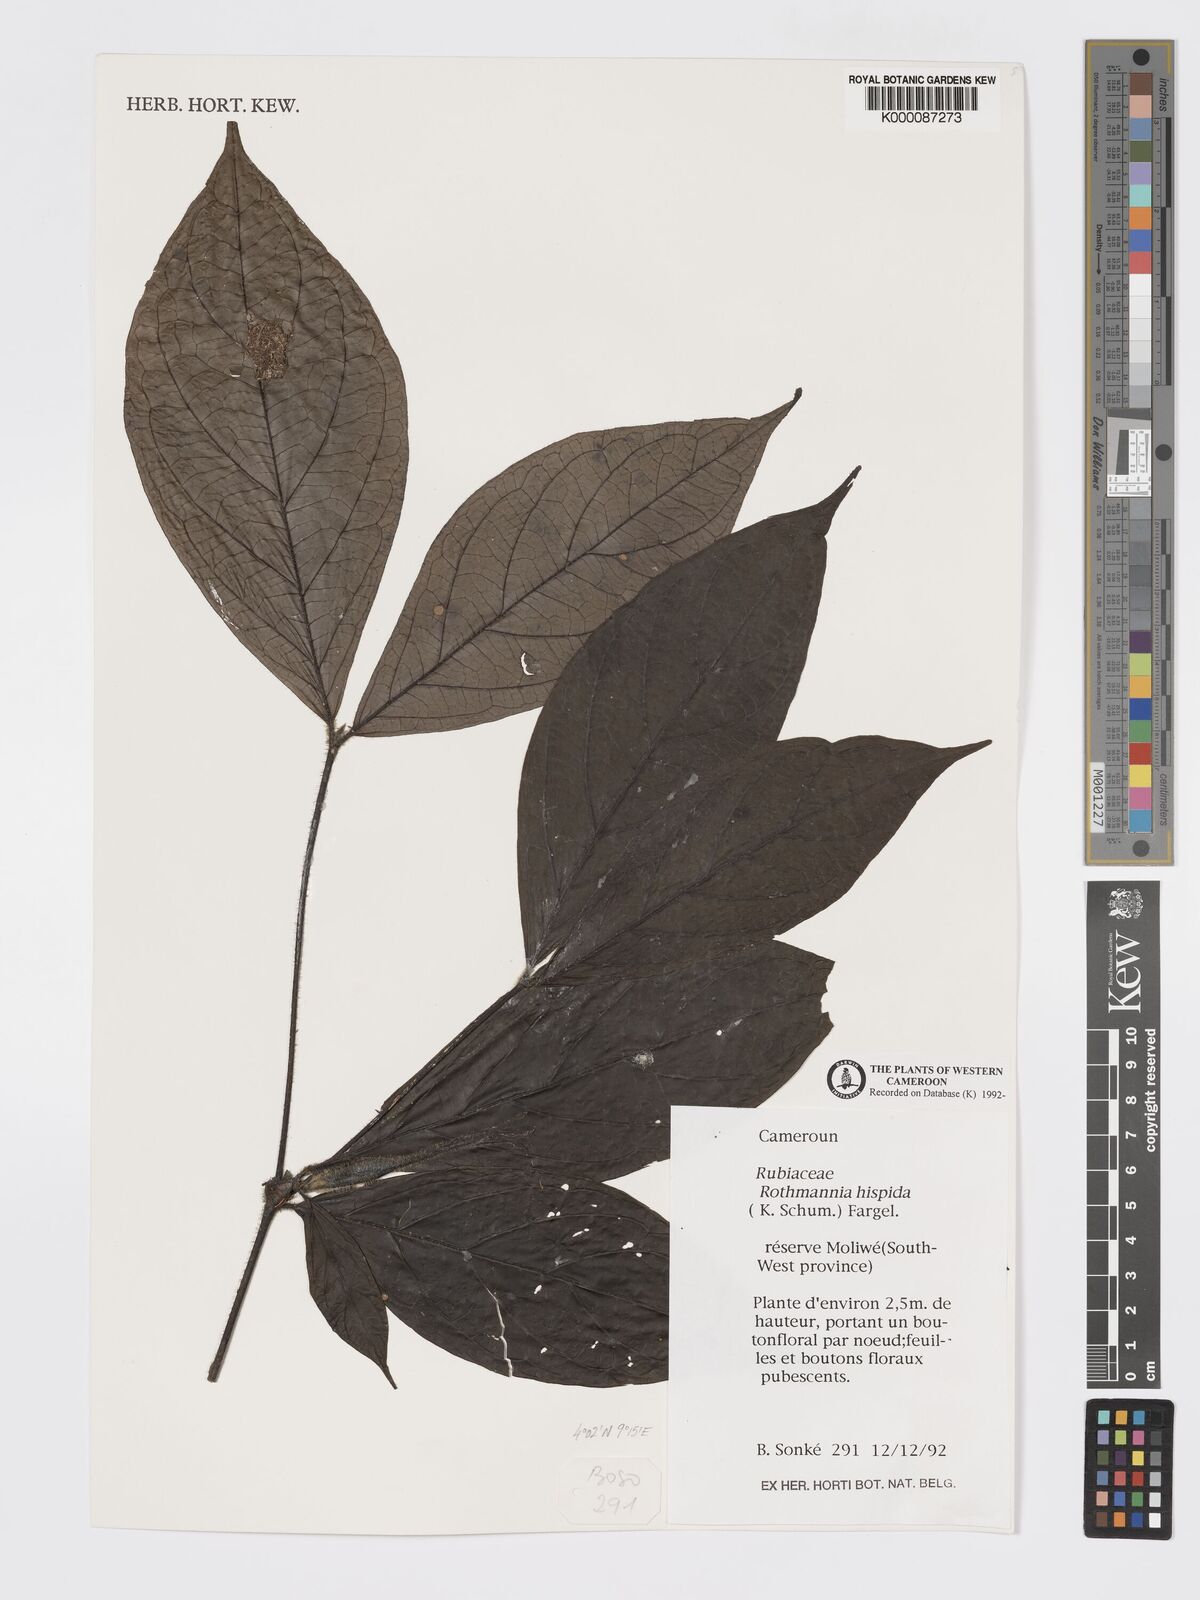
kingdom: Plantae
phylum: Tracheophyta
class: Magnoliopsida
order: Gentianales
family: Rubiaceae
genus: Rothmannia
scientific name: Rothmannia hispida
